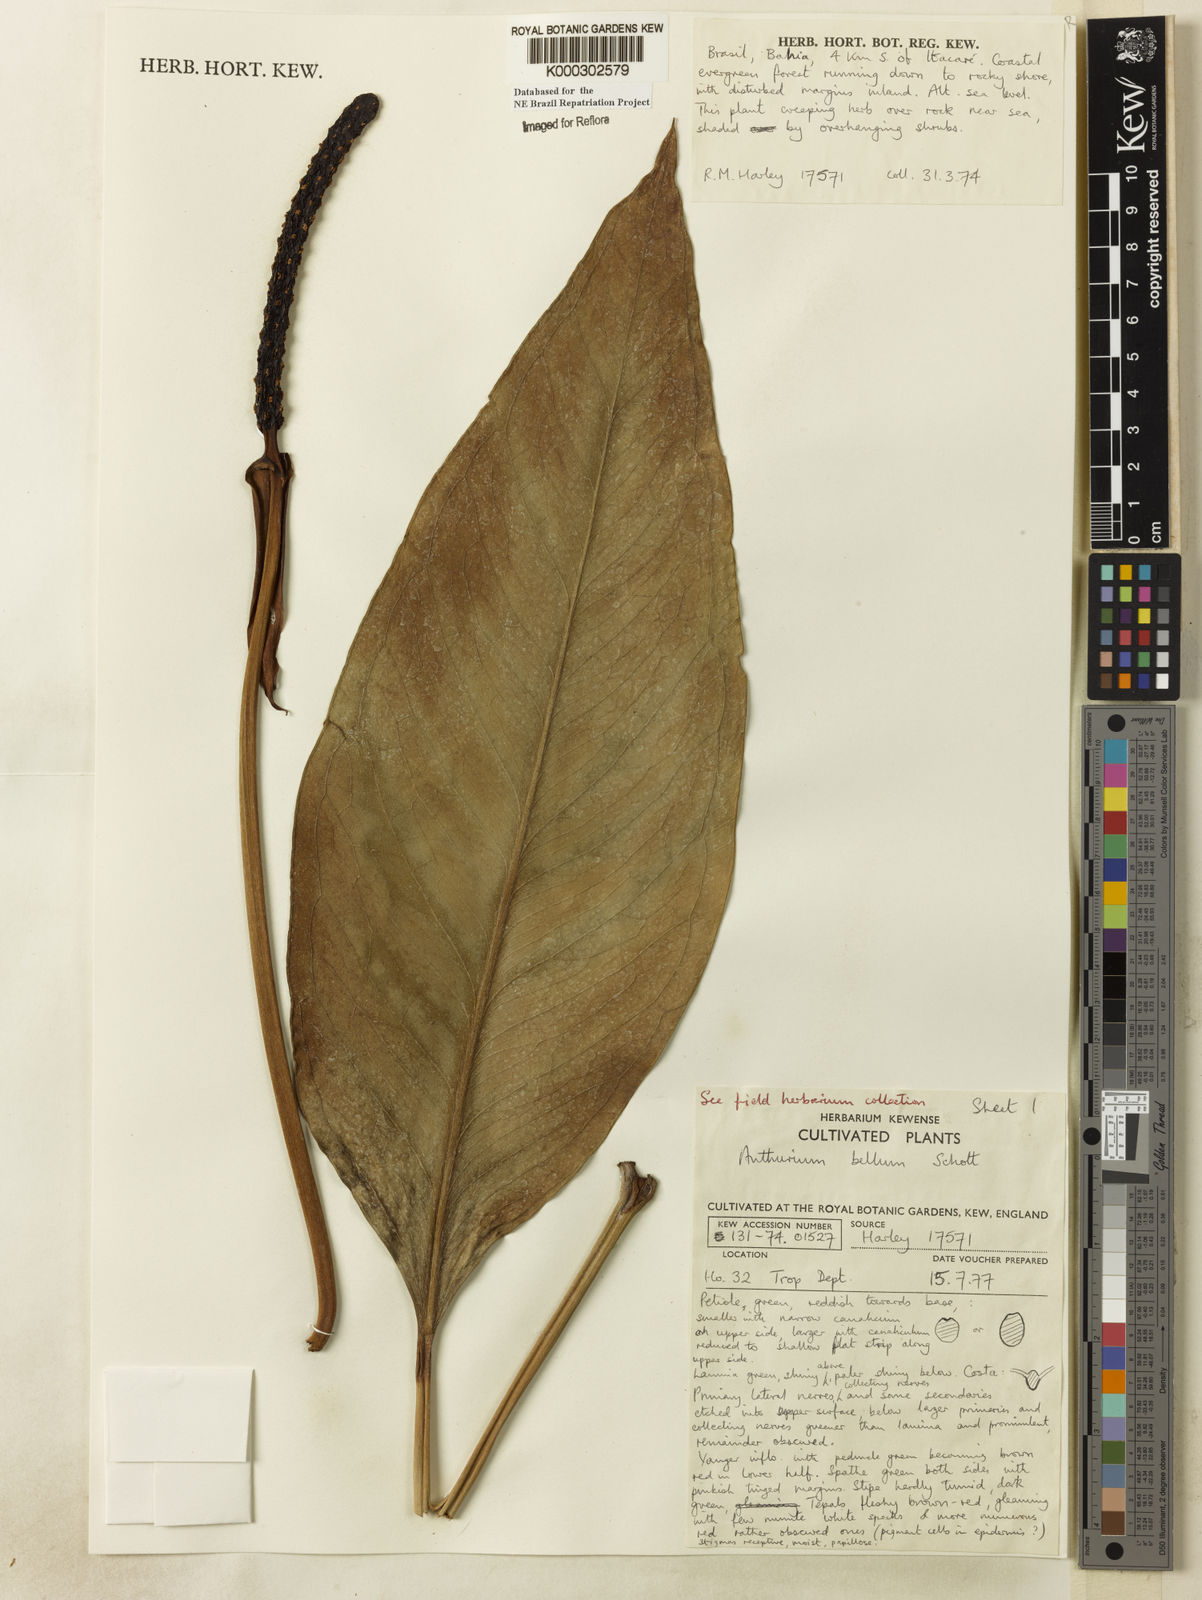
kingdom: Plantae
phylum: Tracheophyta
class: Liliopsida
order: Alismatales
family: Araceae
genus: Anthurium
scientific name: Anthurium bellum
